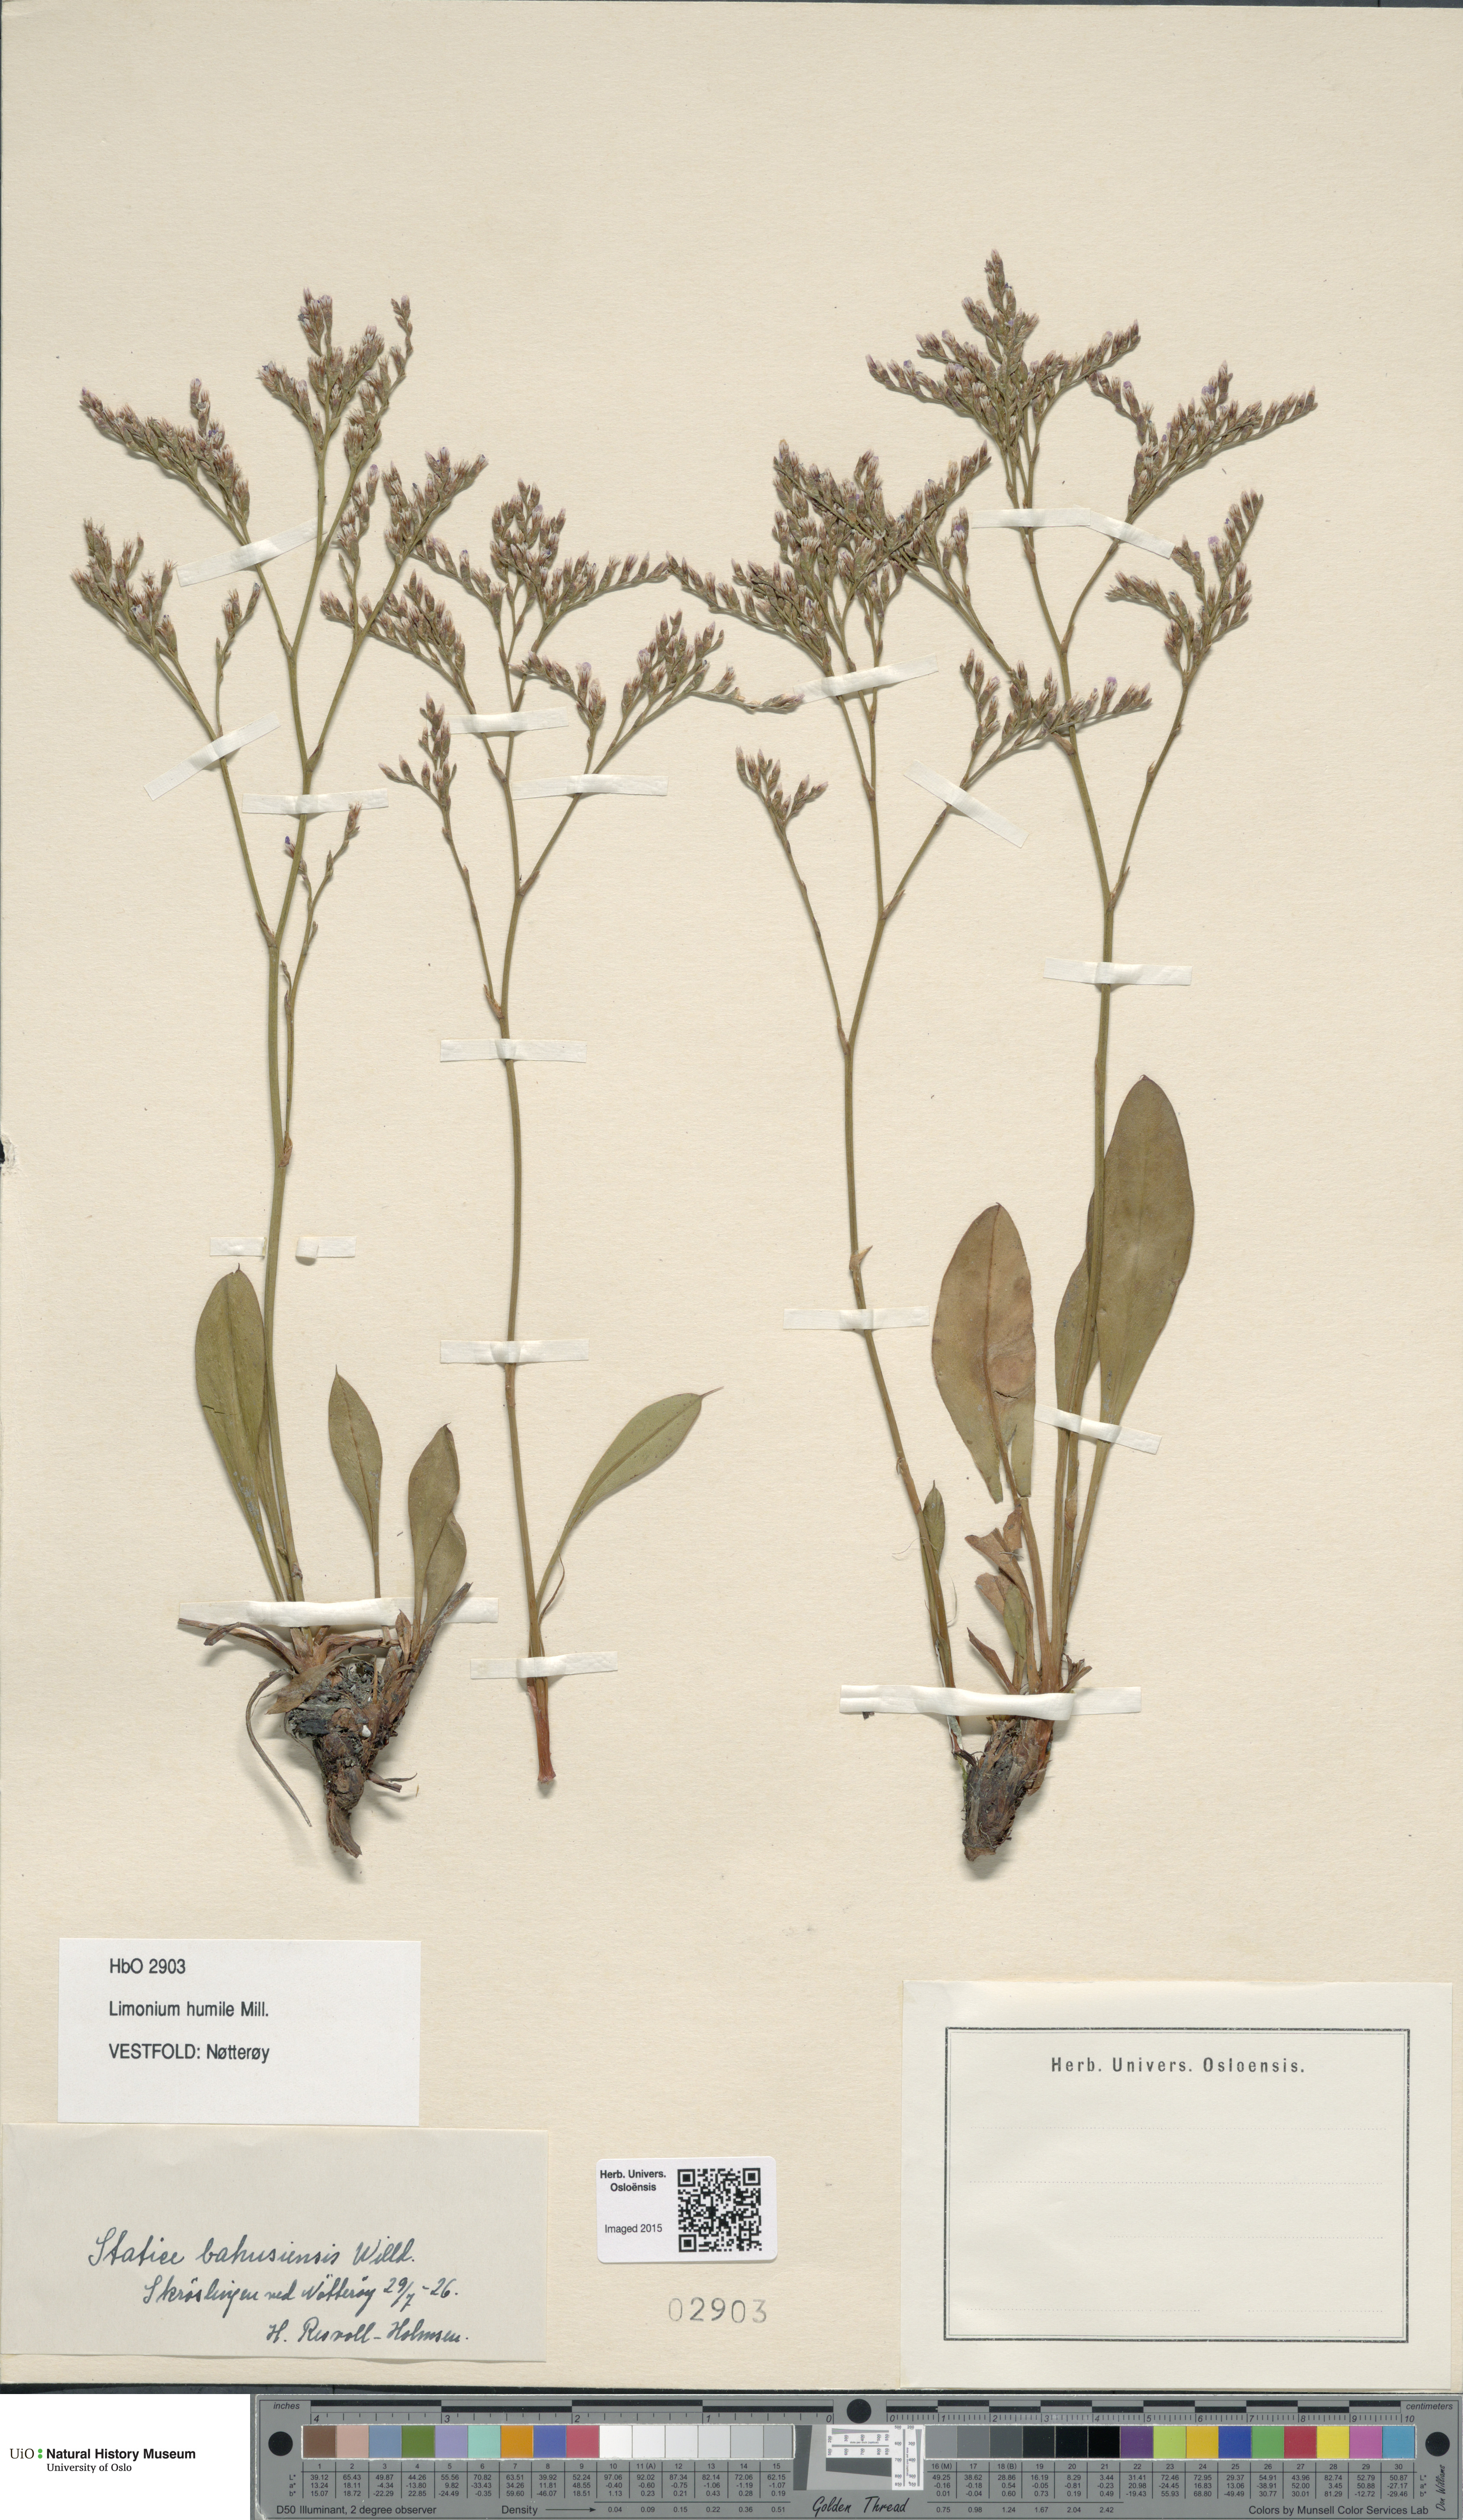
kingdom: Plantae
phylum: Tracheophyta
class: Magnoliopsida
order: Caryophyllales
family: Plumbaginaceae
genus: Limonium
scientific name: Limonium humile
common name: Lax-flowered sea-lavender
